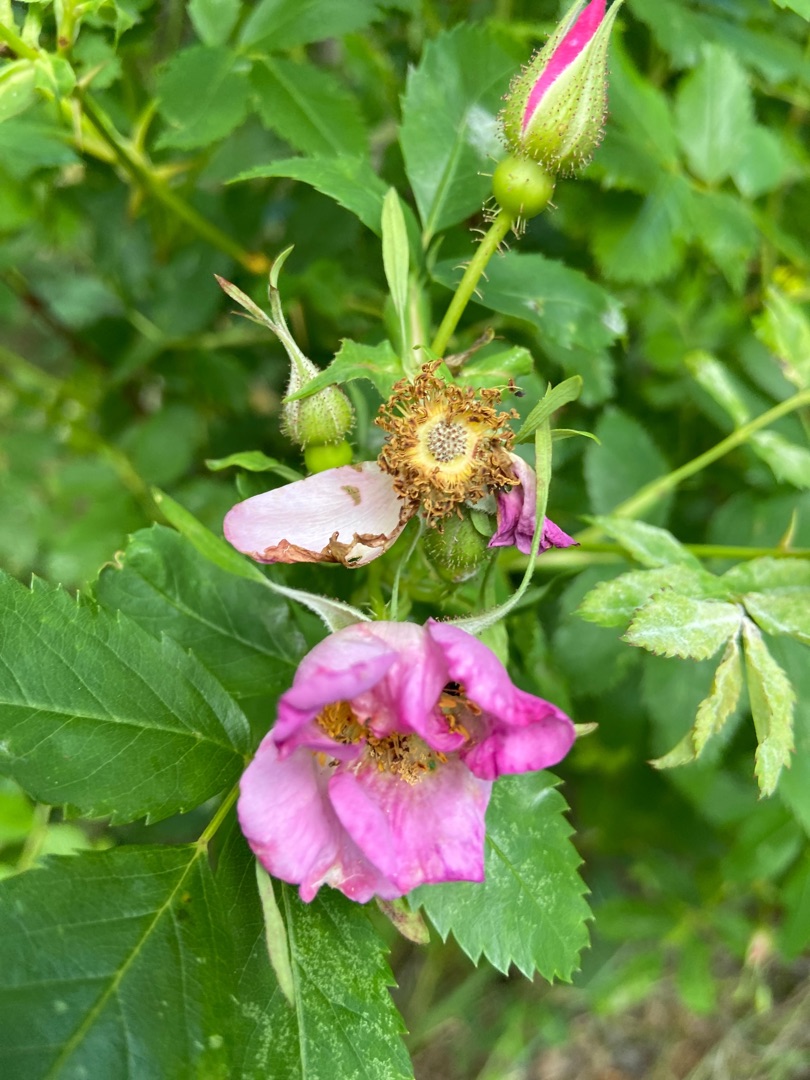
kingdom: Plantae
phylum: Tracheophyta
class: Magnoliopsida
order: Rosales
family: Rosaceae
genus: Rosa
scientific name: Rosa carolina
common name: Glansbladet rose
